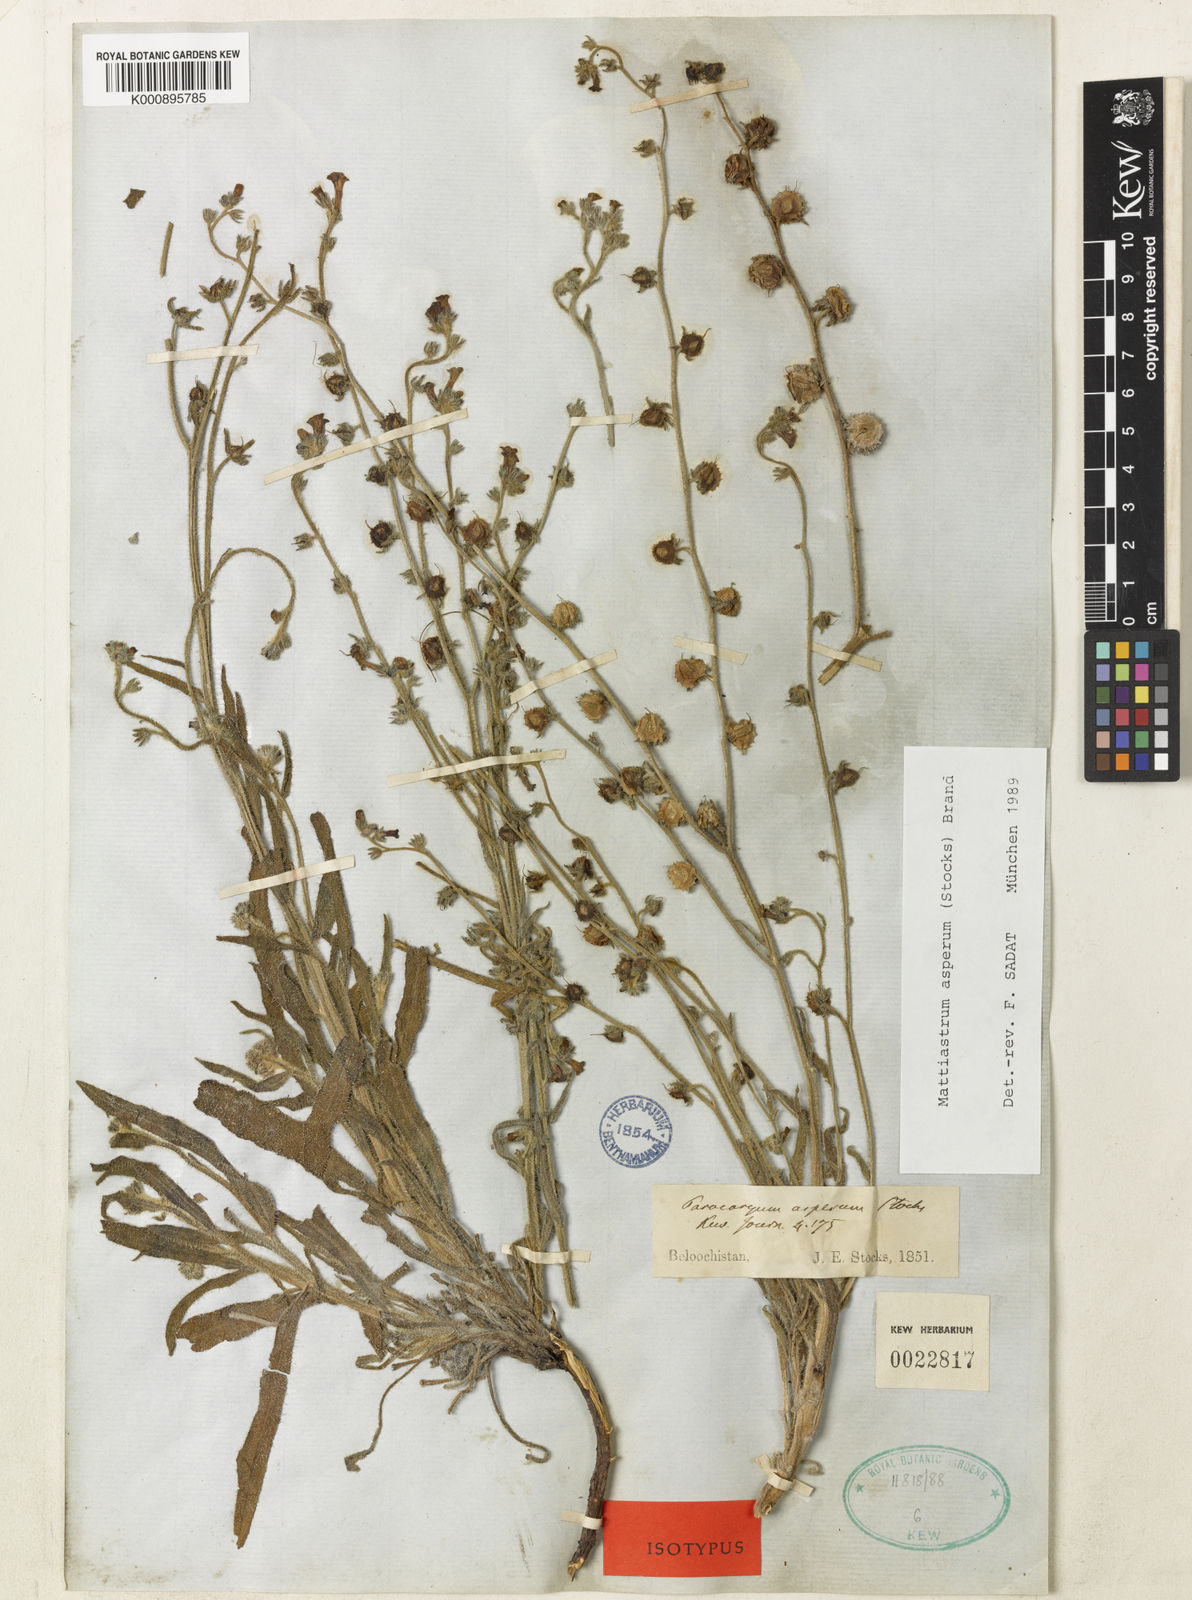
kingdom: Plantae
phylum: Tracheophyta
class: Magnoliopsida
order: Boraginales
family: Boraginaceae
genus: Paracaryum
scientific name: Paracaryum asperum
